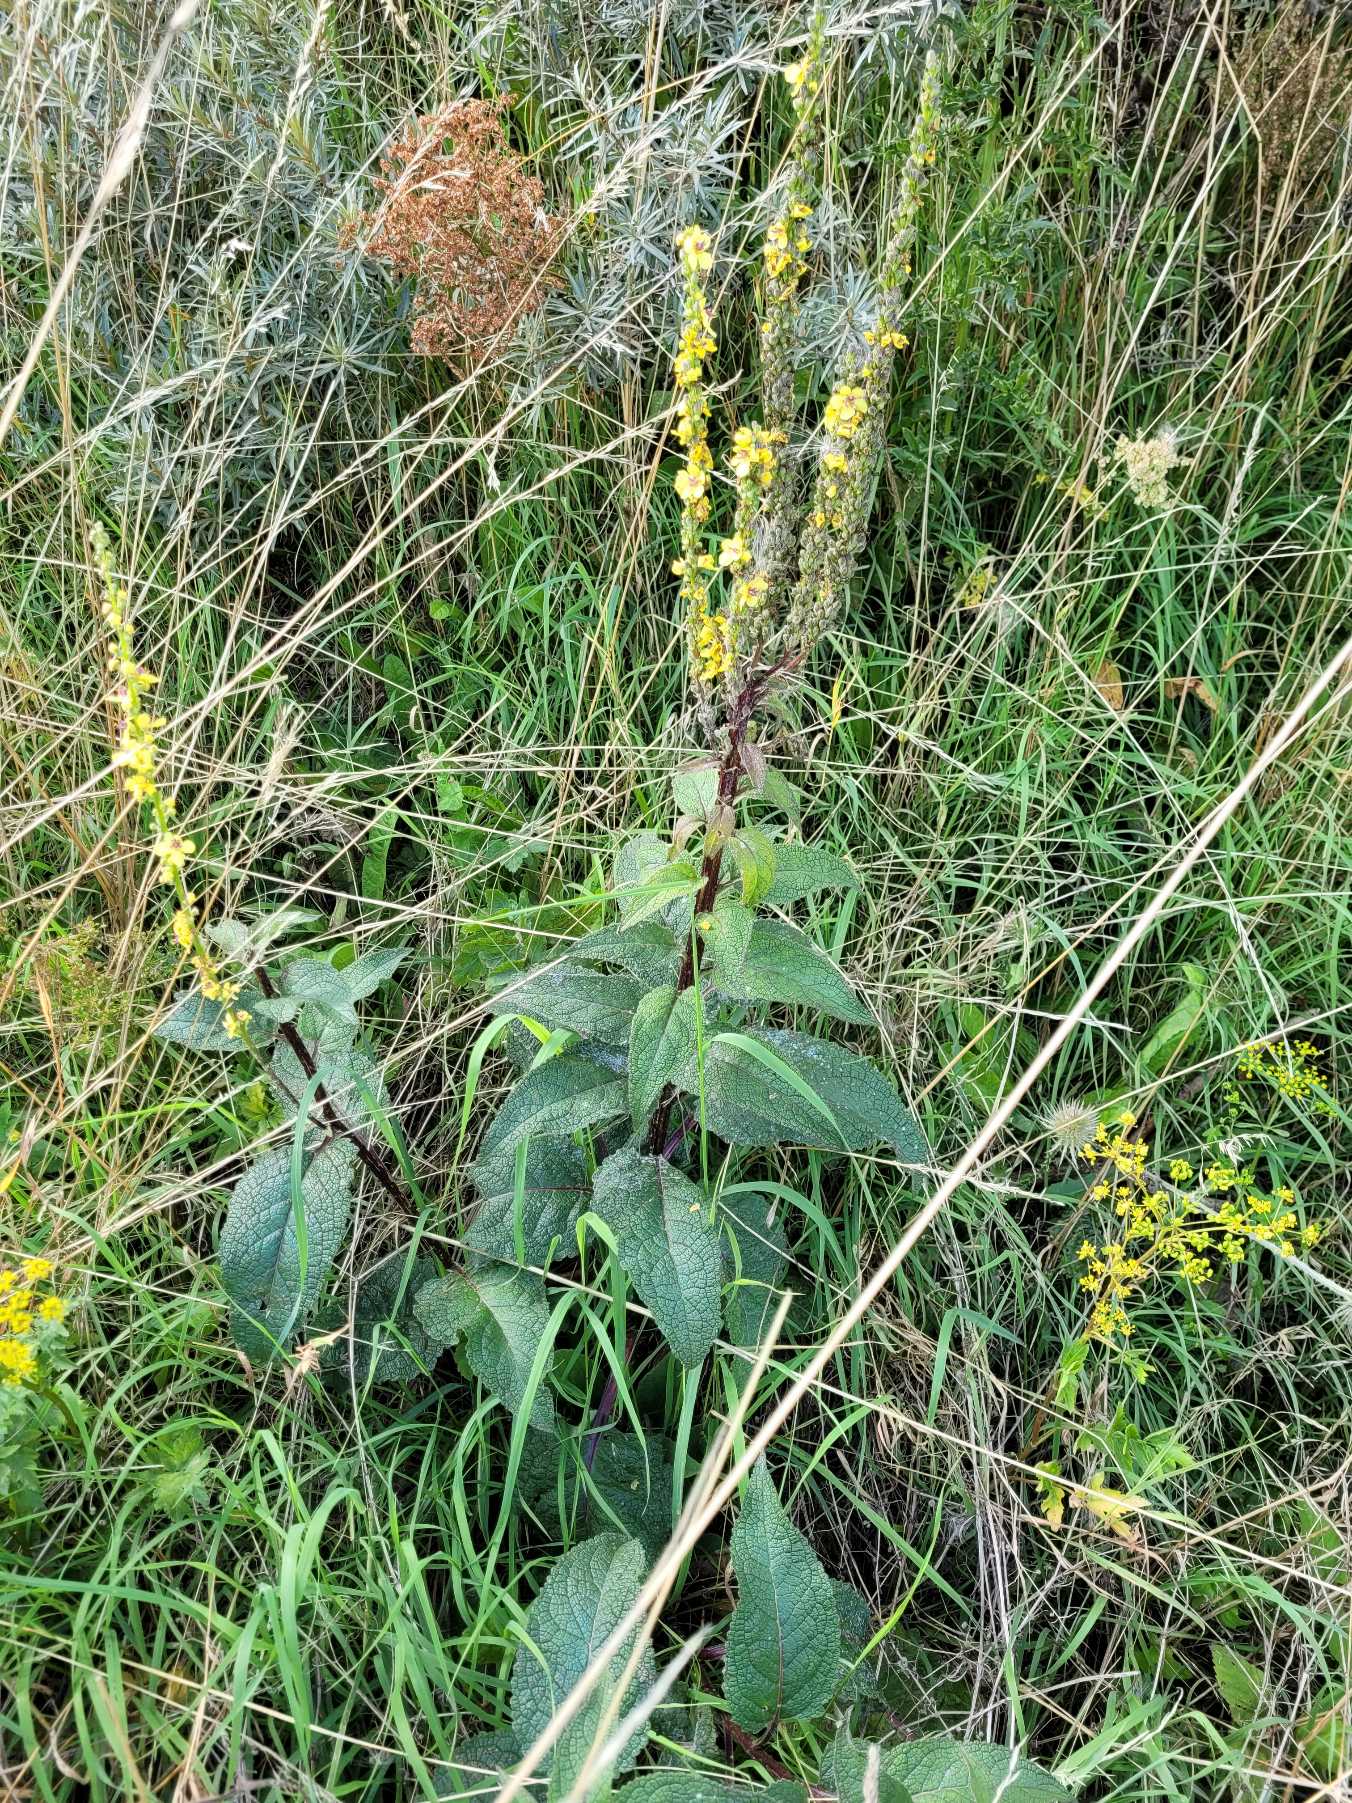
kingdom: Plantae
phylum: Tracheophyta
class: Magnoliopsida
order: Lamiales
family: Scrophulariaceae
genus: Verbascum
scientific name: Verbascum nigrum
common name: Mørk kongelys
